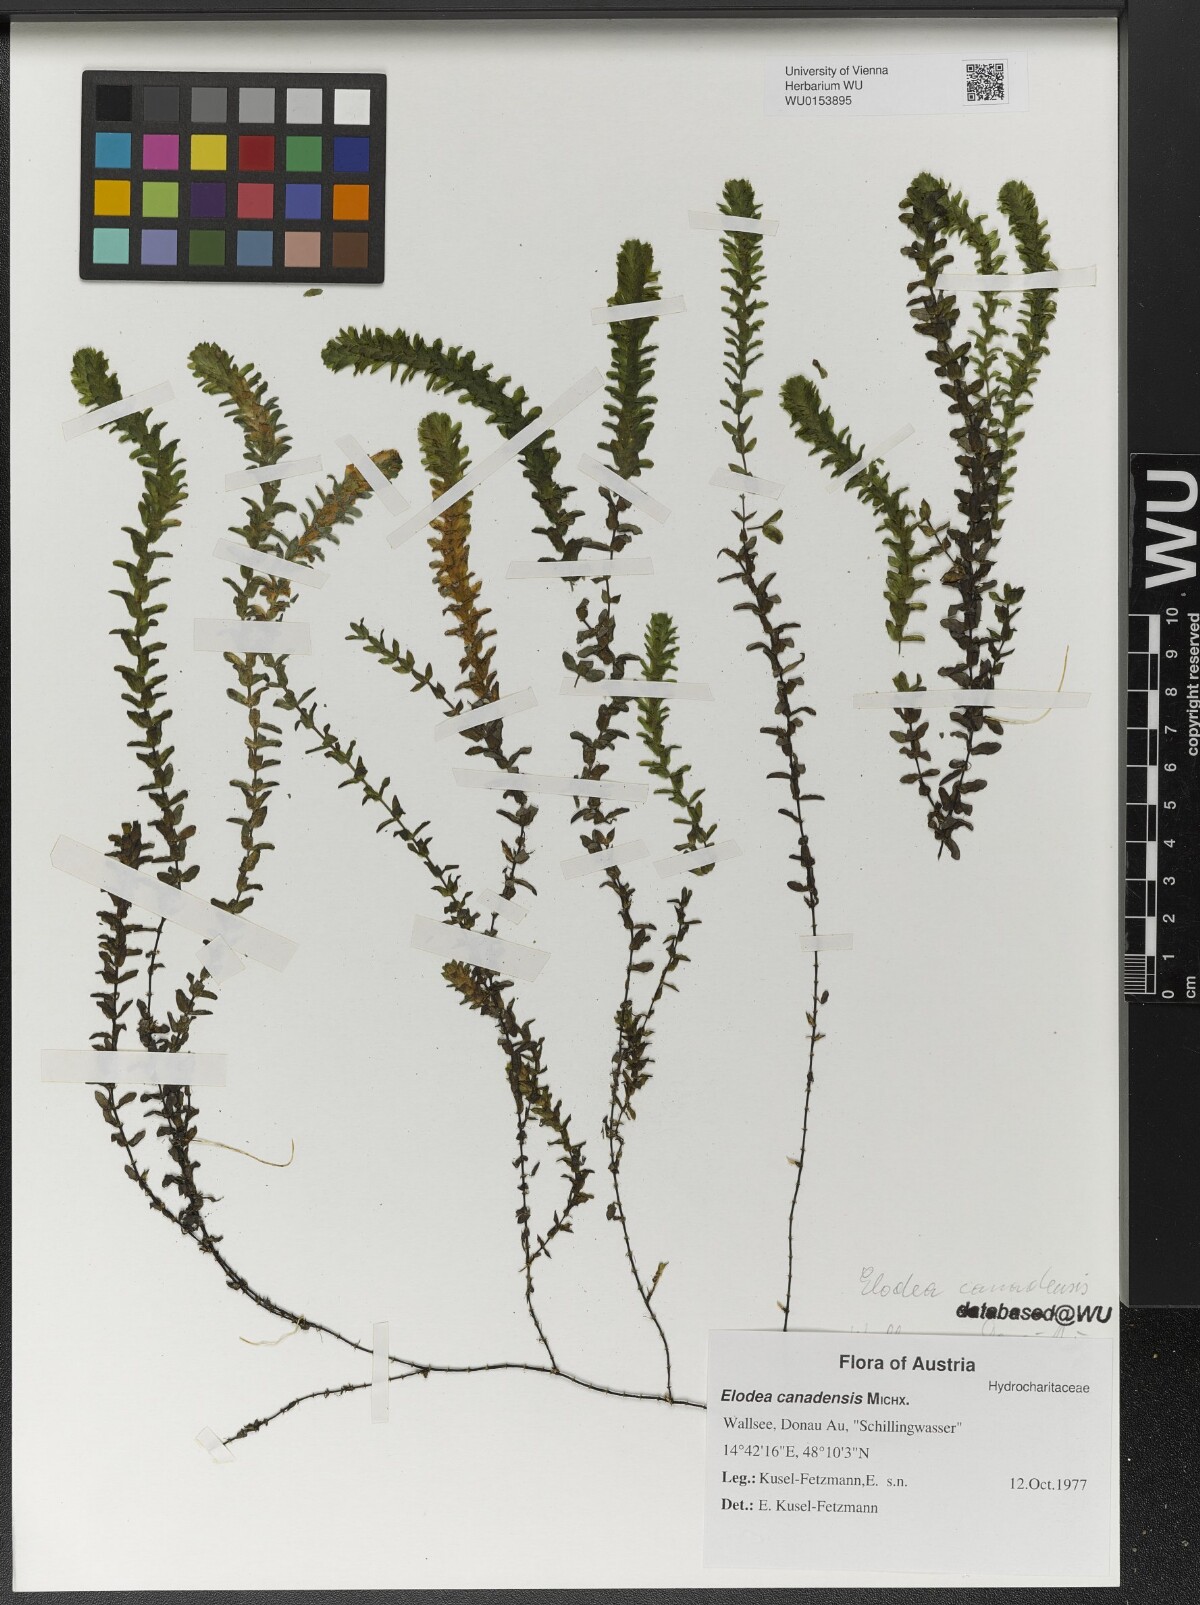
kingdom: Plantae
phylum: Tracheophyta
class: Liliopsida
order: Alismatales
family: Hydrocharitaceae
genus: Elodea
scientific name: Elodea canadensis
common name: Canadian waterweed
